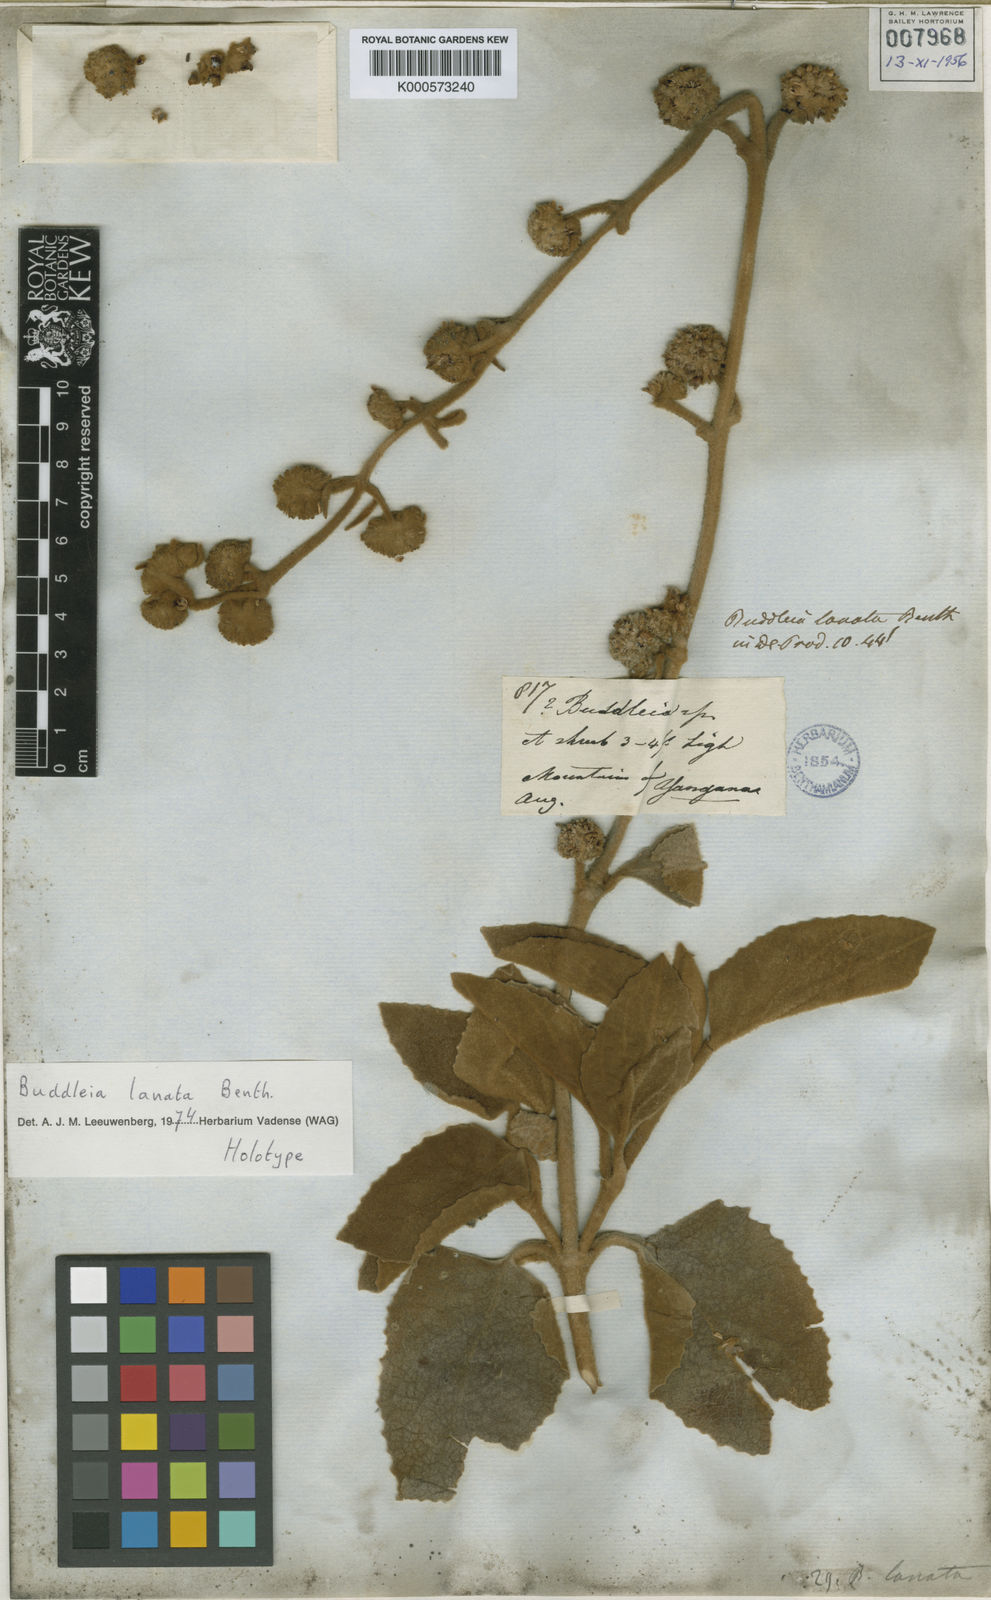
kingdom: Plantae
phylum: Tracheophyta
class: Magnoliopsida
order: Lamiales
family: Scrophulariaceae
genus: Buddleja
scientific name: Buddleja lanata
